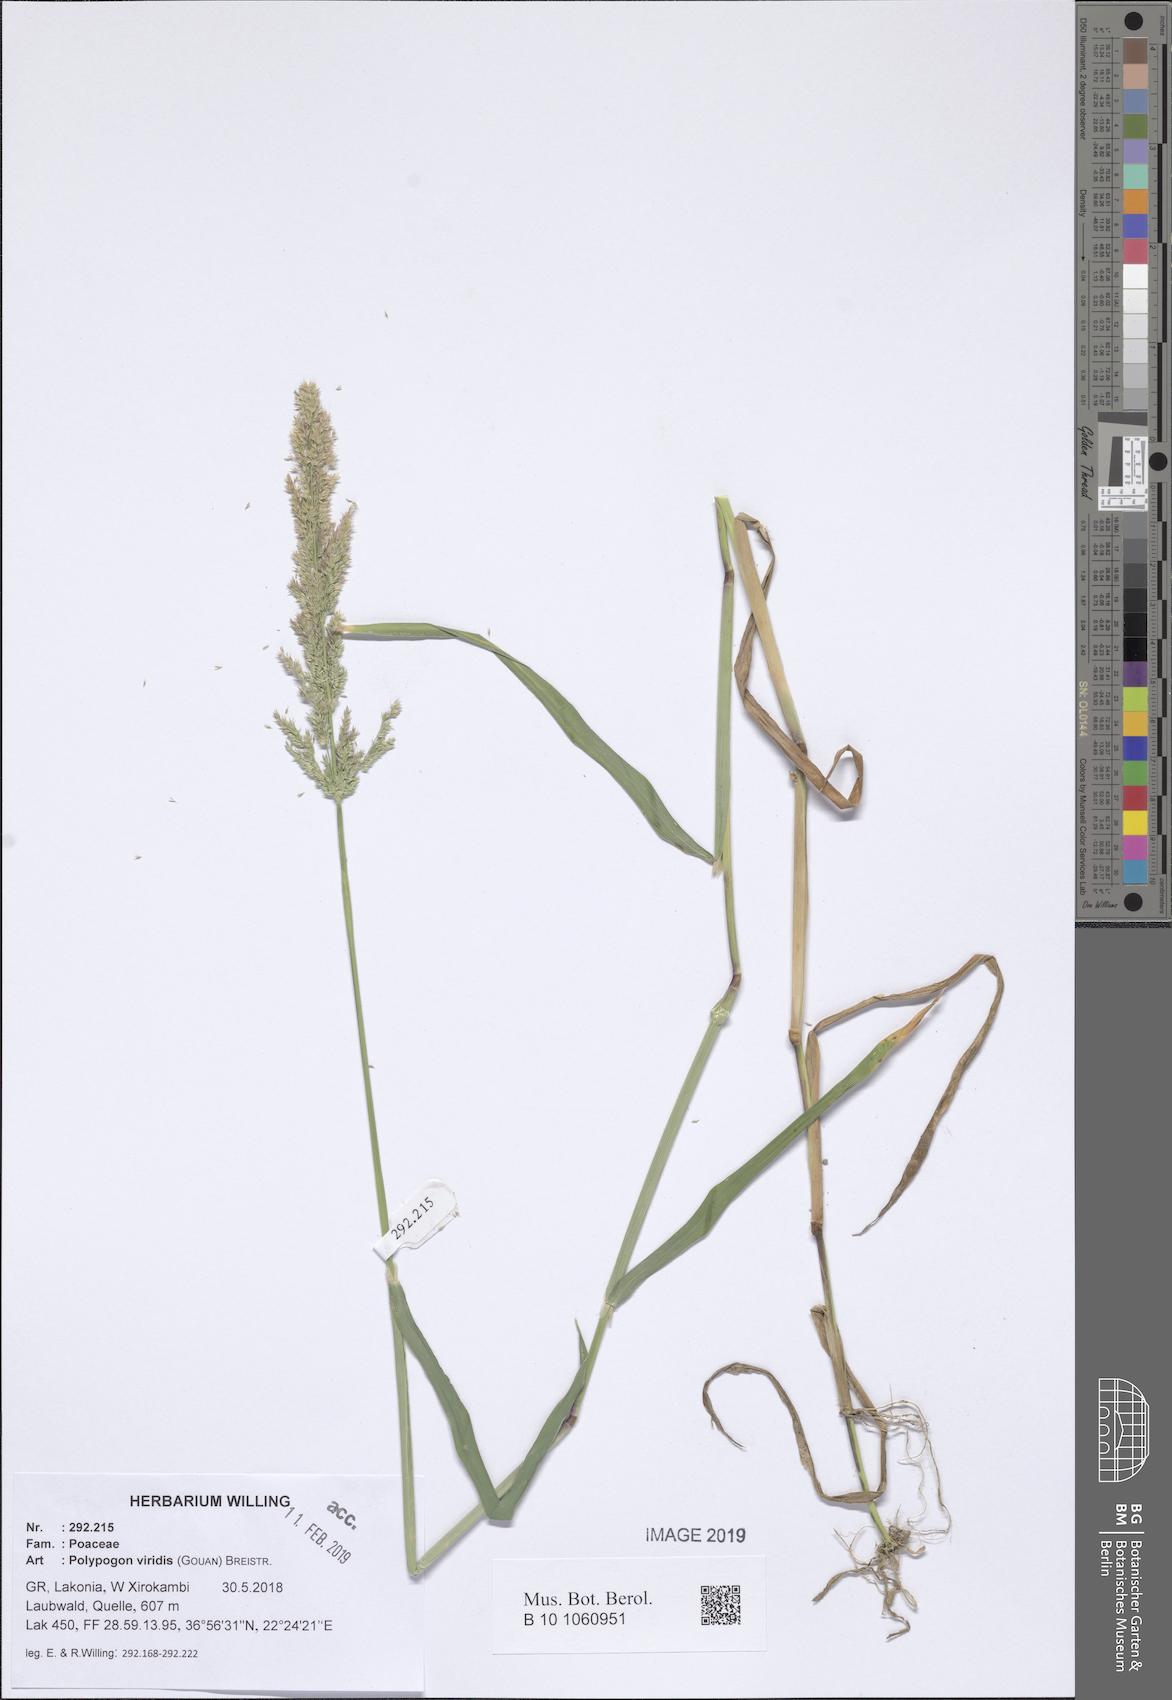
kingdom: Plantae
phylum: Tracheophyta
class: Liliopsida
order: Poales
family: Poaceae
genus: Polypogon
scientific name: Polypogon viridis
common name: Water bent
